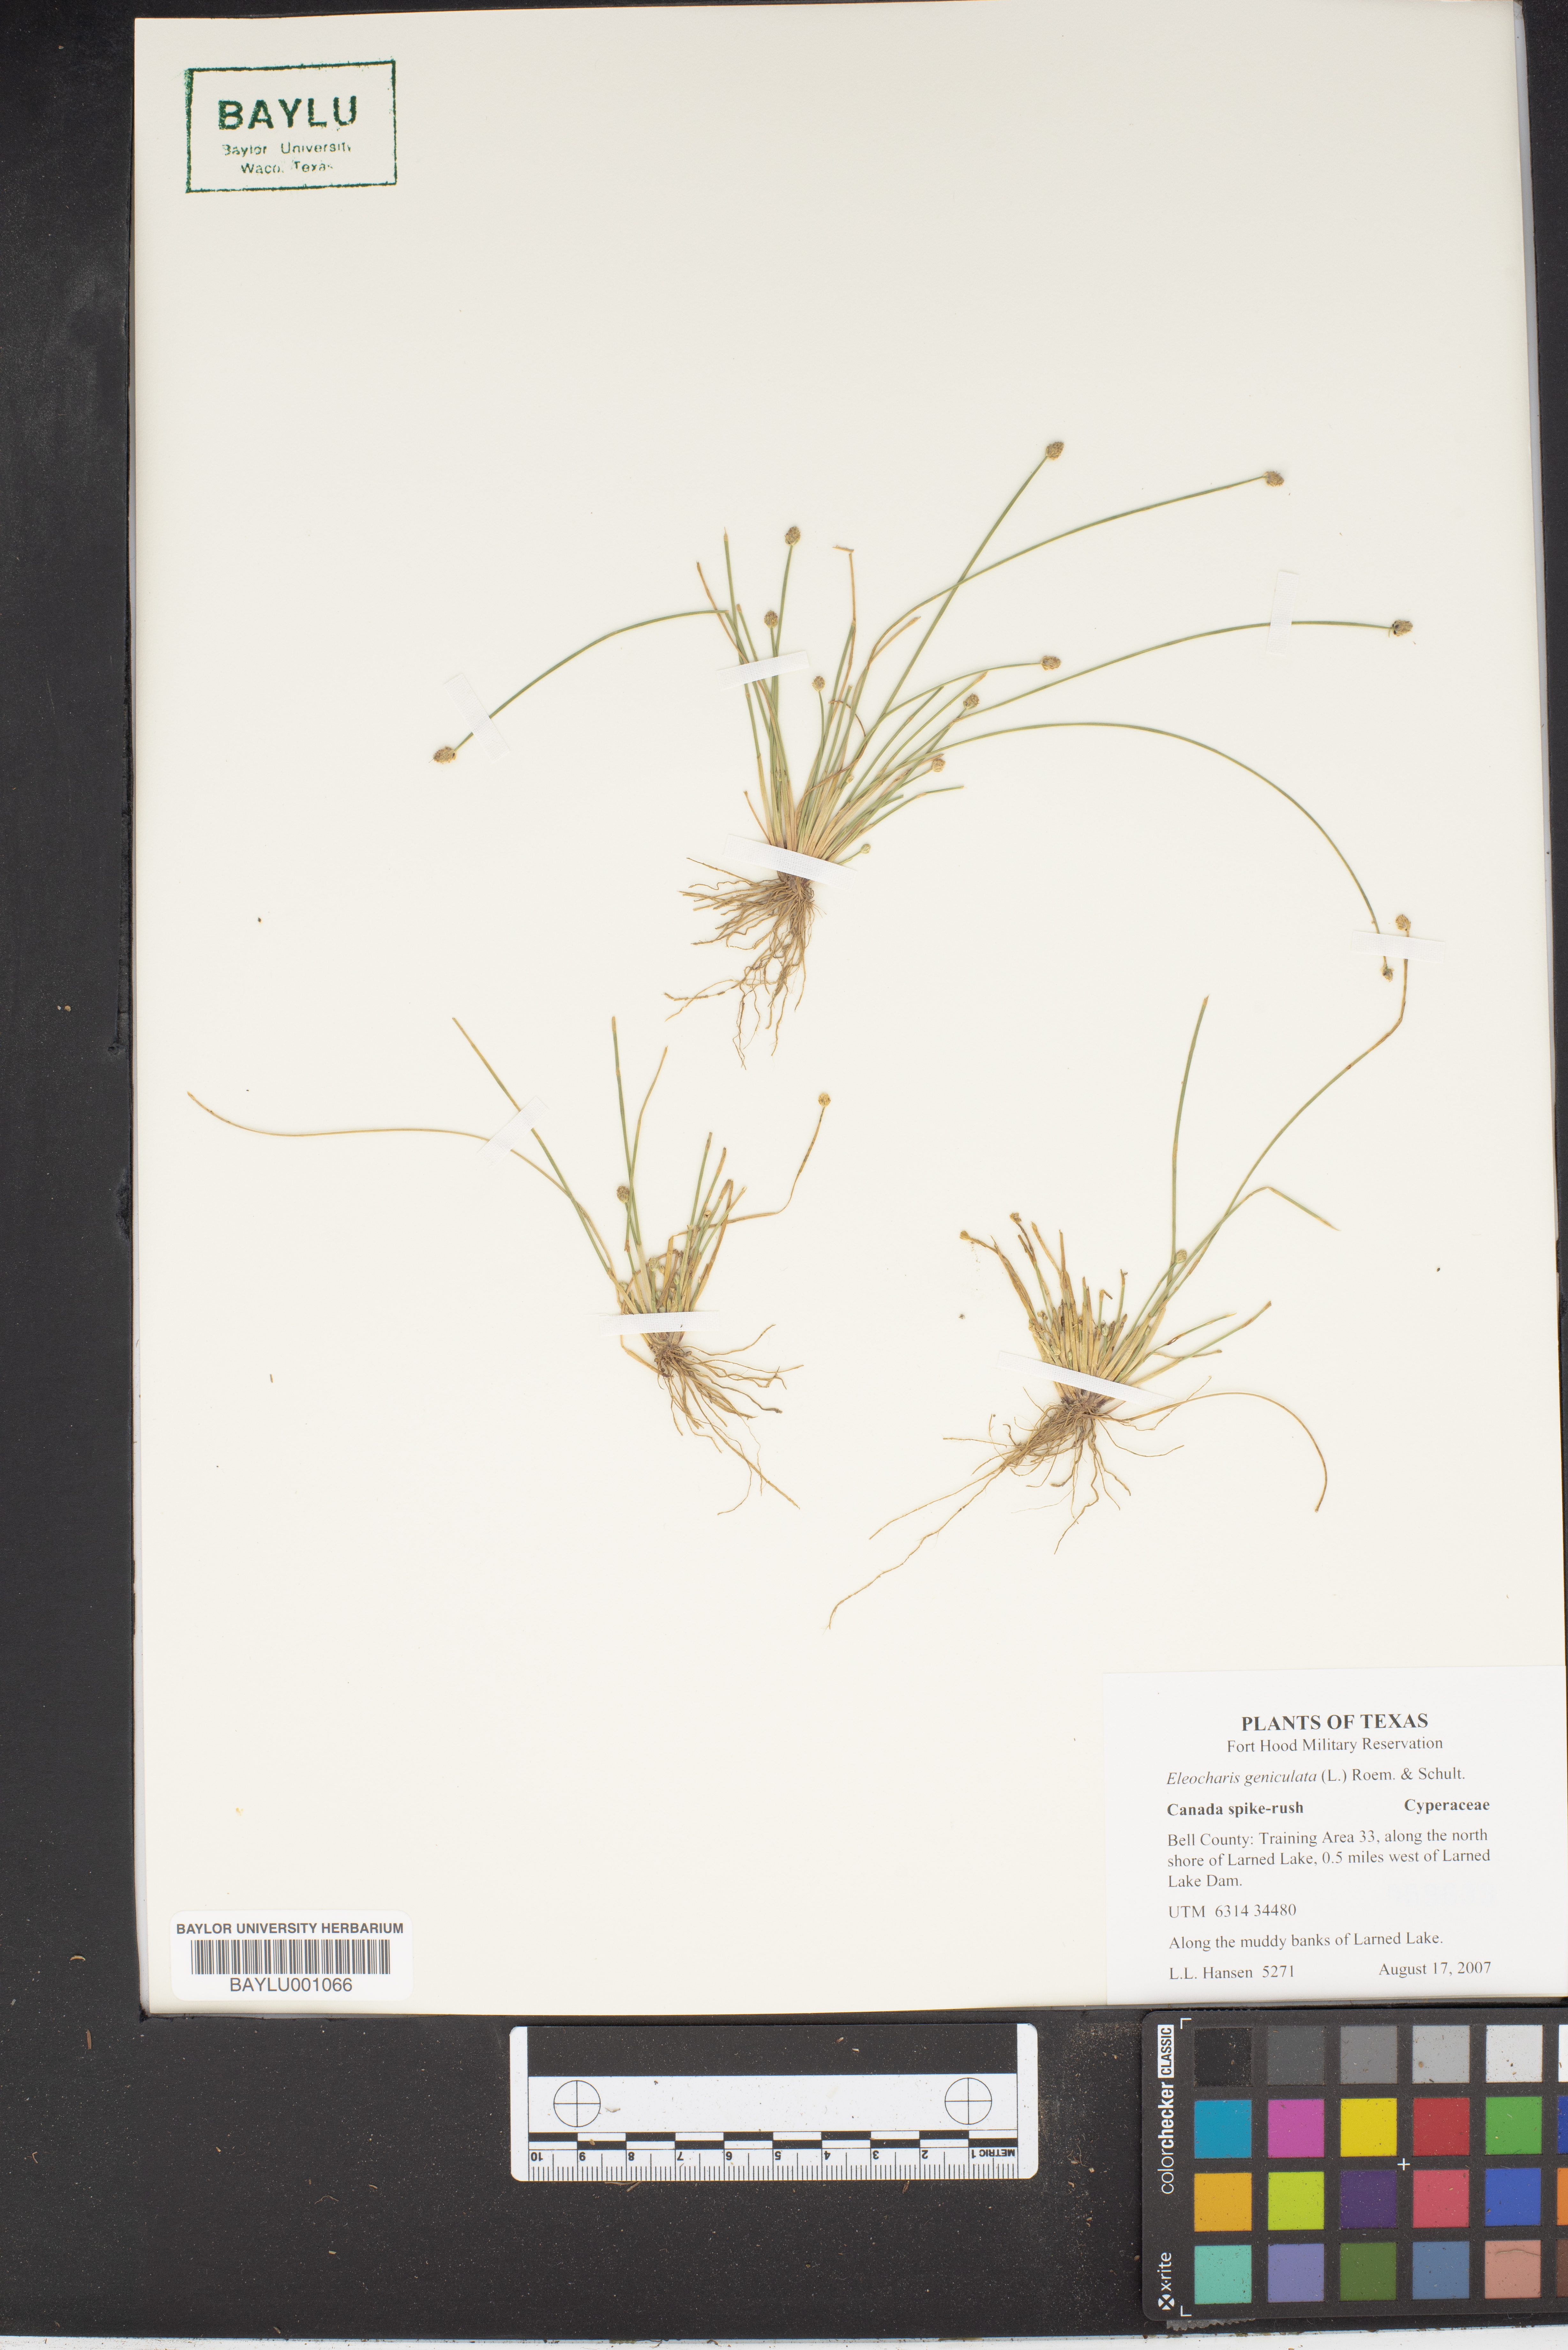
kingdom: Plantae
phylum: Tracheophyta
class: Liliopsida
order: Poales
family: Cyperaceae
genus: Eleocharis
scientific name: Eleocharis geniculata
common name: Canada spikesedge
